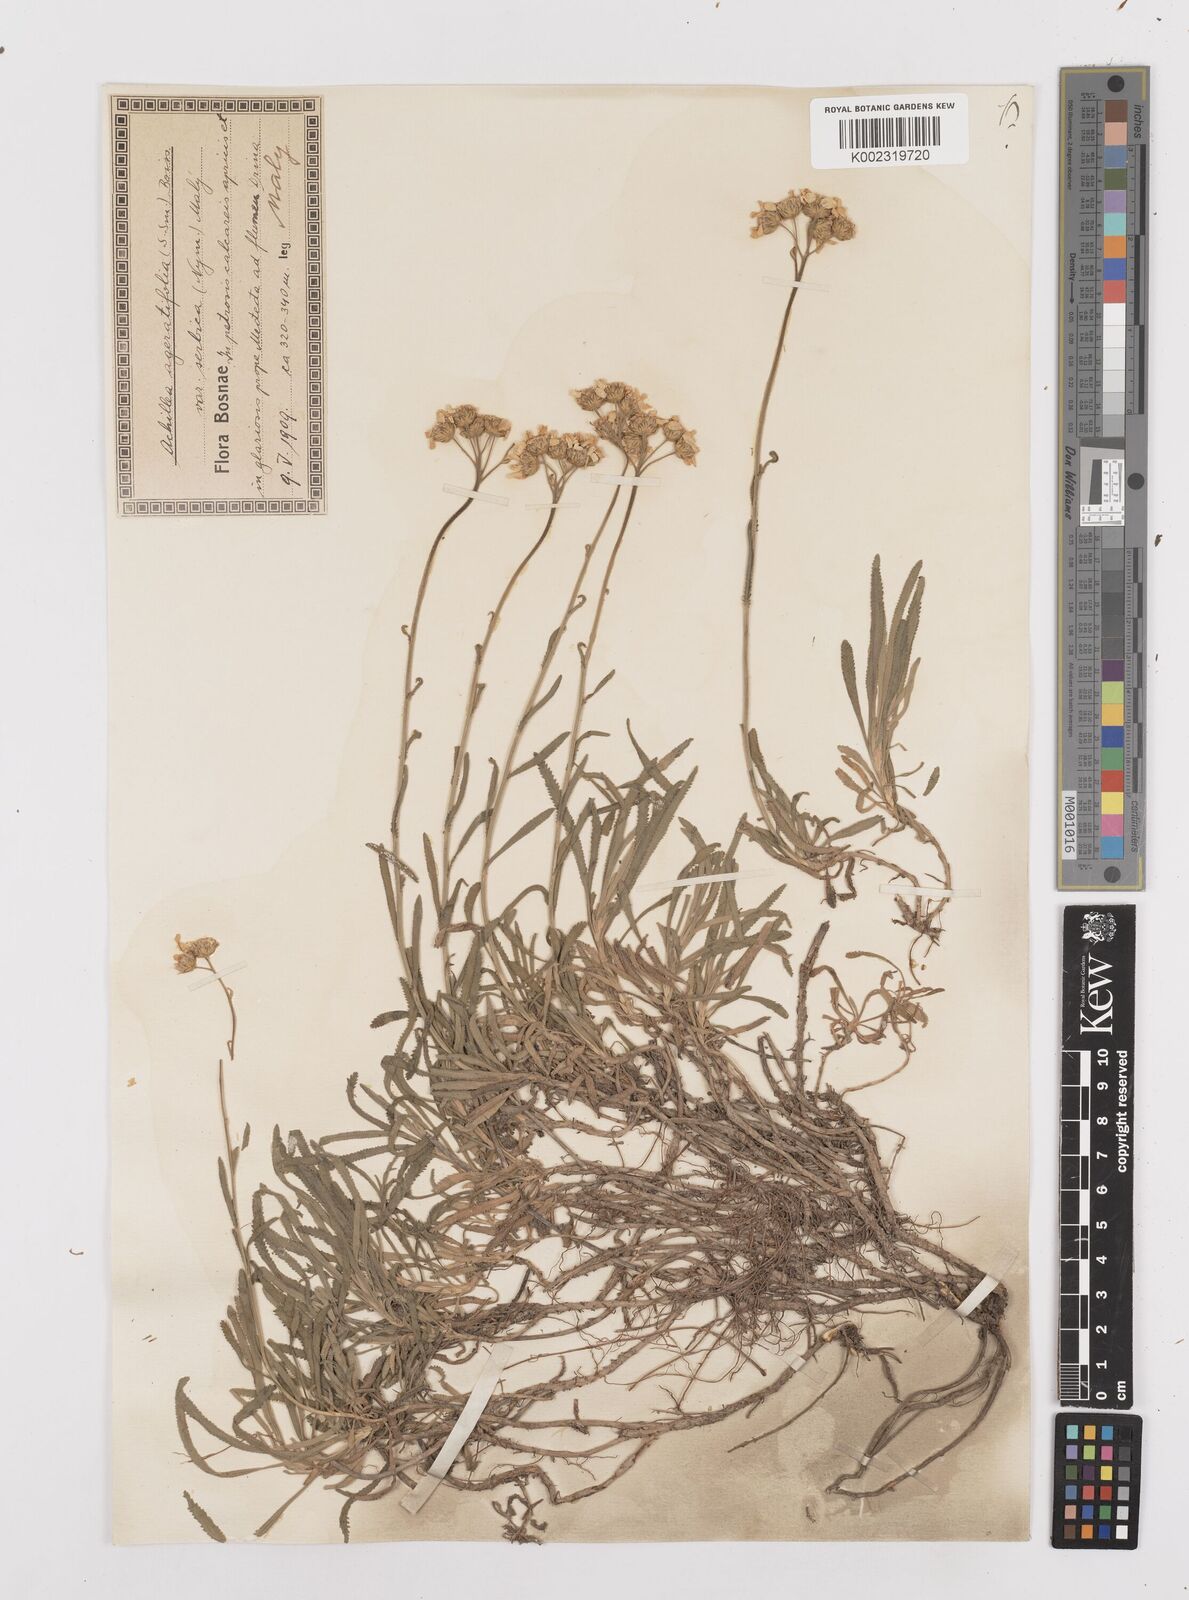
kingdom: Plantae
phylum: Tracheophyta
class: Magnoliopsida
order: Asterales
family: Asteraceae
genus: Achillea
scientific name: Achillea ageratifolia
